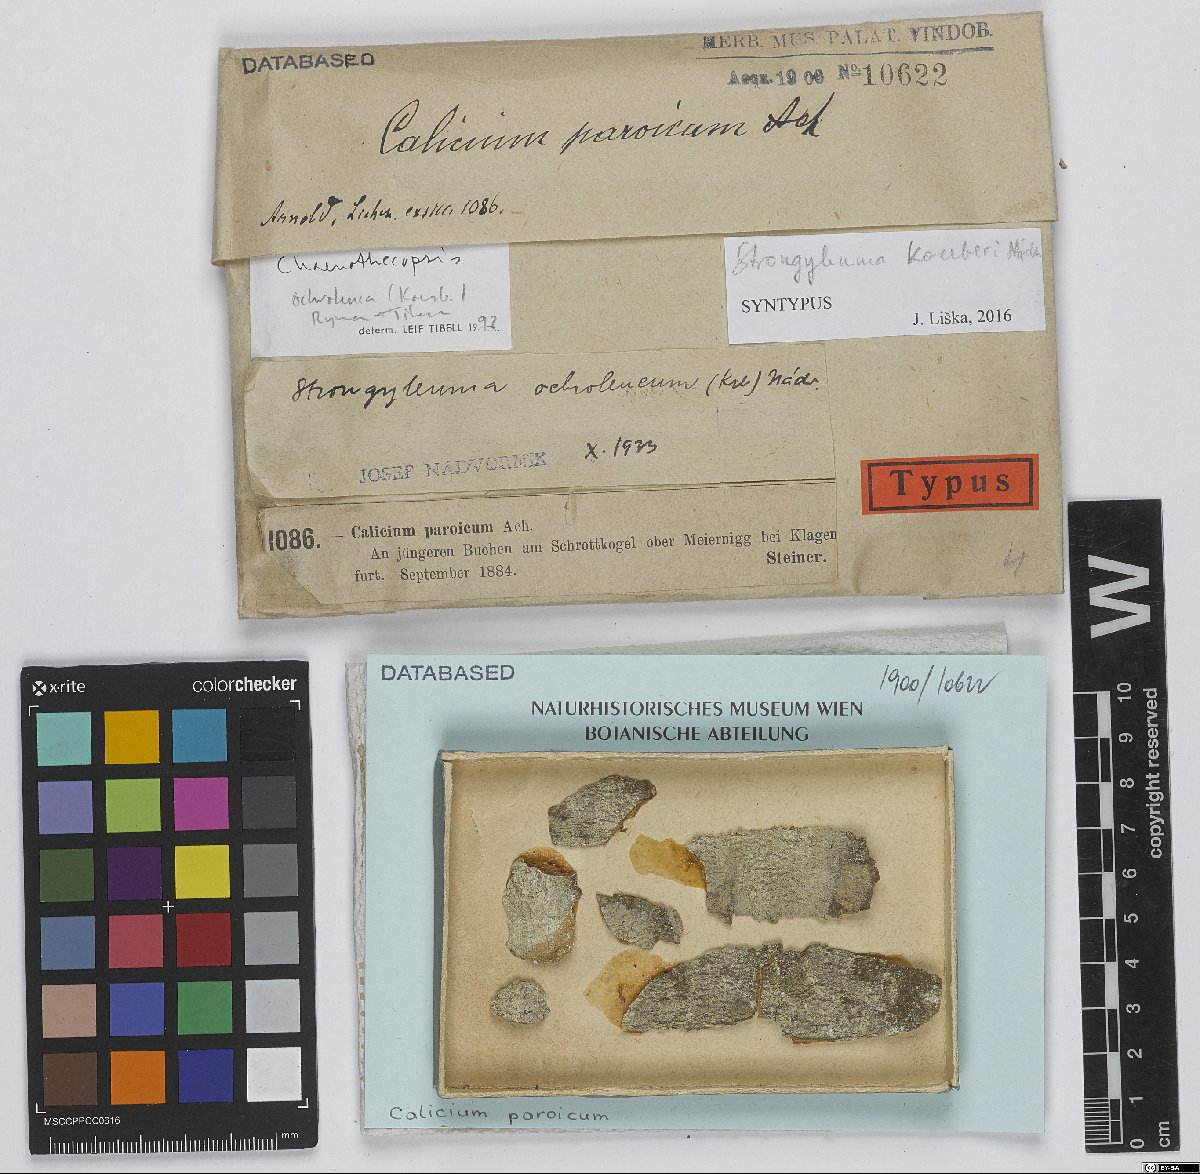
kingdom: Fungi
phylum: Ascomycota
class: Eurotiomycetes
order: Mycocaliciales
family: Mycocaliciaceae
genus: Chaenothecopsis
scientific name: Chaenothecopsis koerberi
